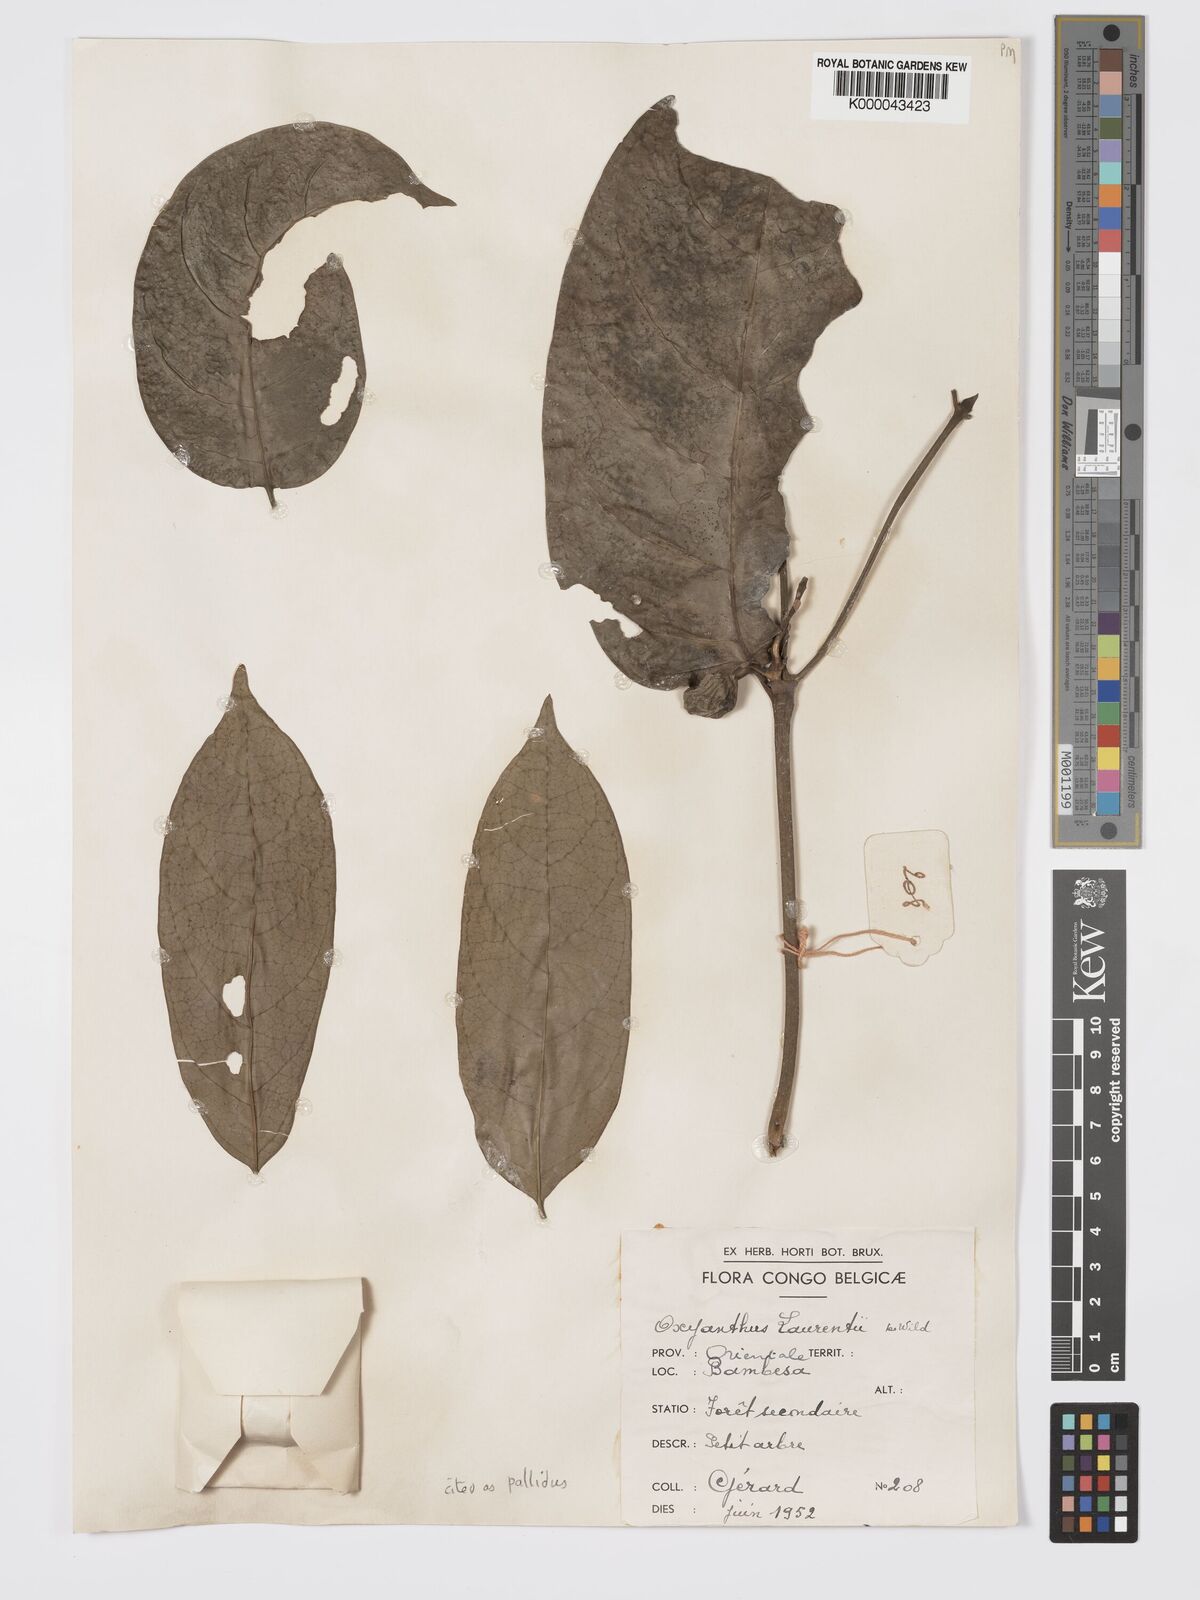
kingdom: Plantae
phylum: Tracheophyta
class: Magnoliopsida
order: Gentianales
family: Rubiaceae
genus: Oxyanthus
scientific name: Oxyanthus pallidus
